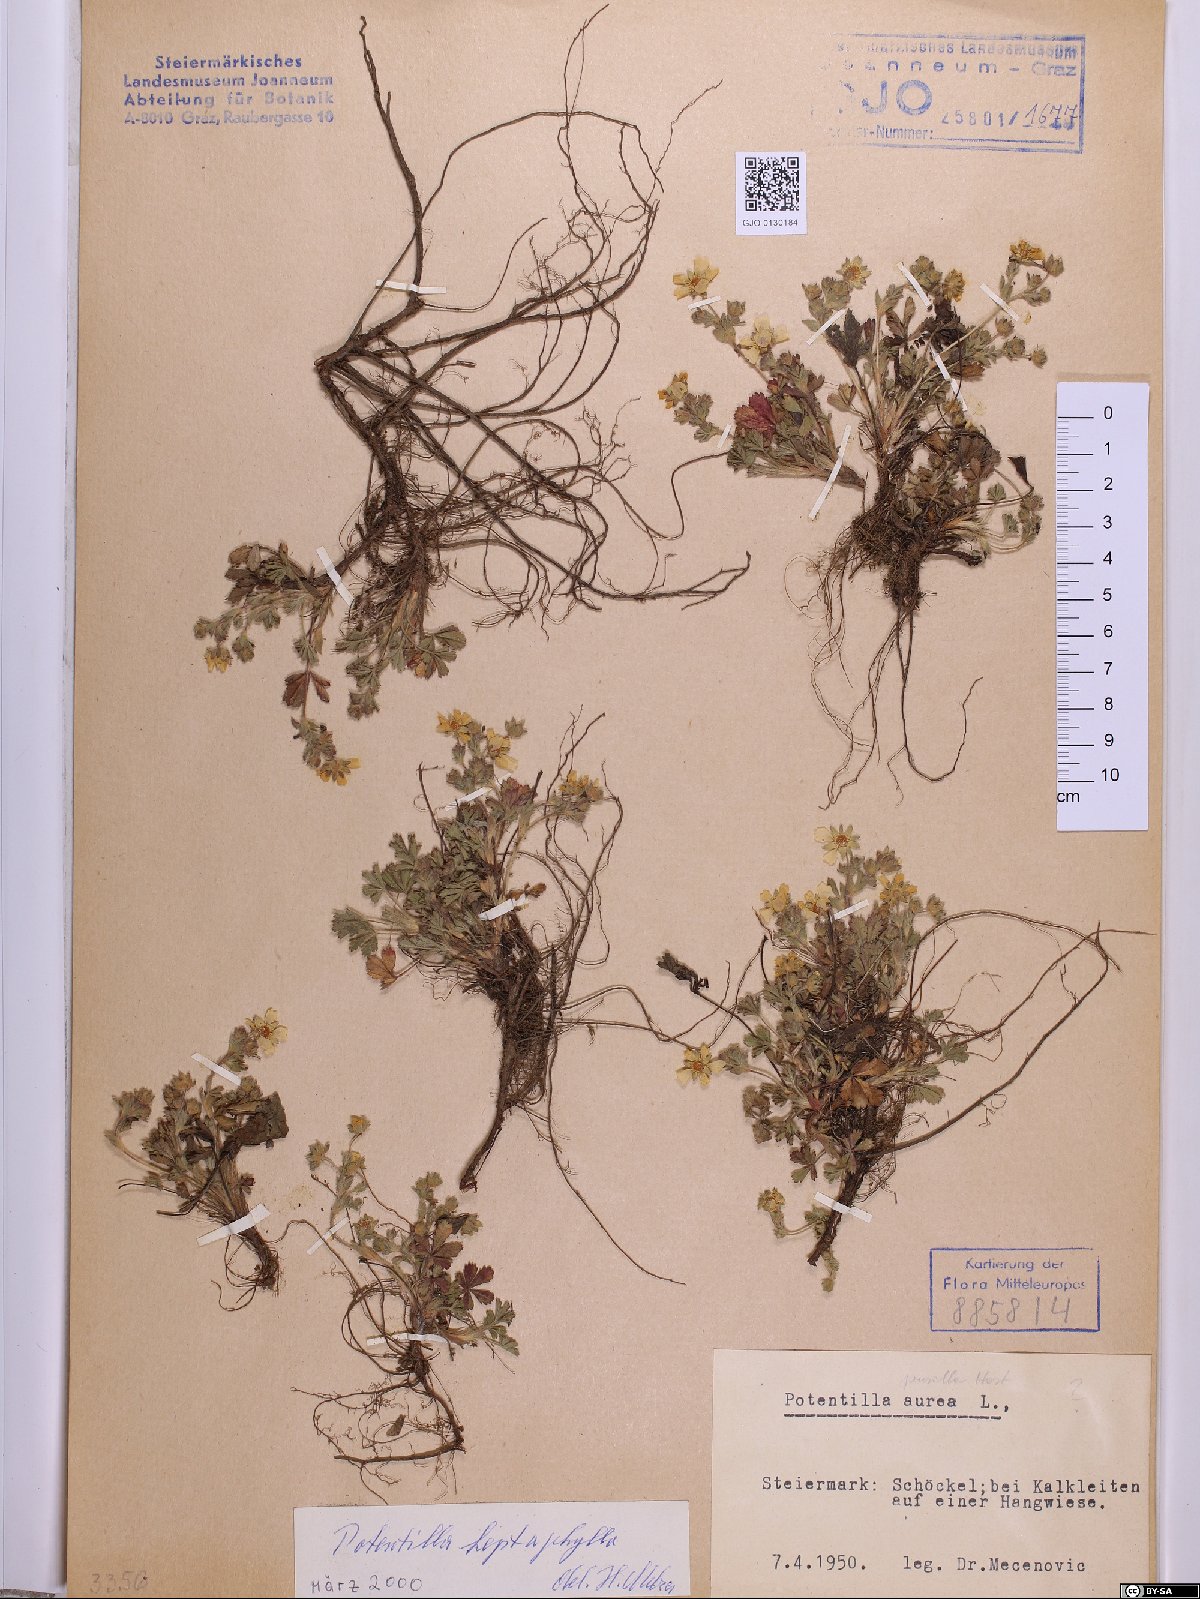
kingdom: Plantae
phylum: Tracheophyta
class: Magnoliopsida
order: Rosales
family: Rosaceae
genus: Potentilla
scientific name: Potentilla heptaphylla
